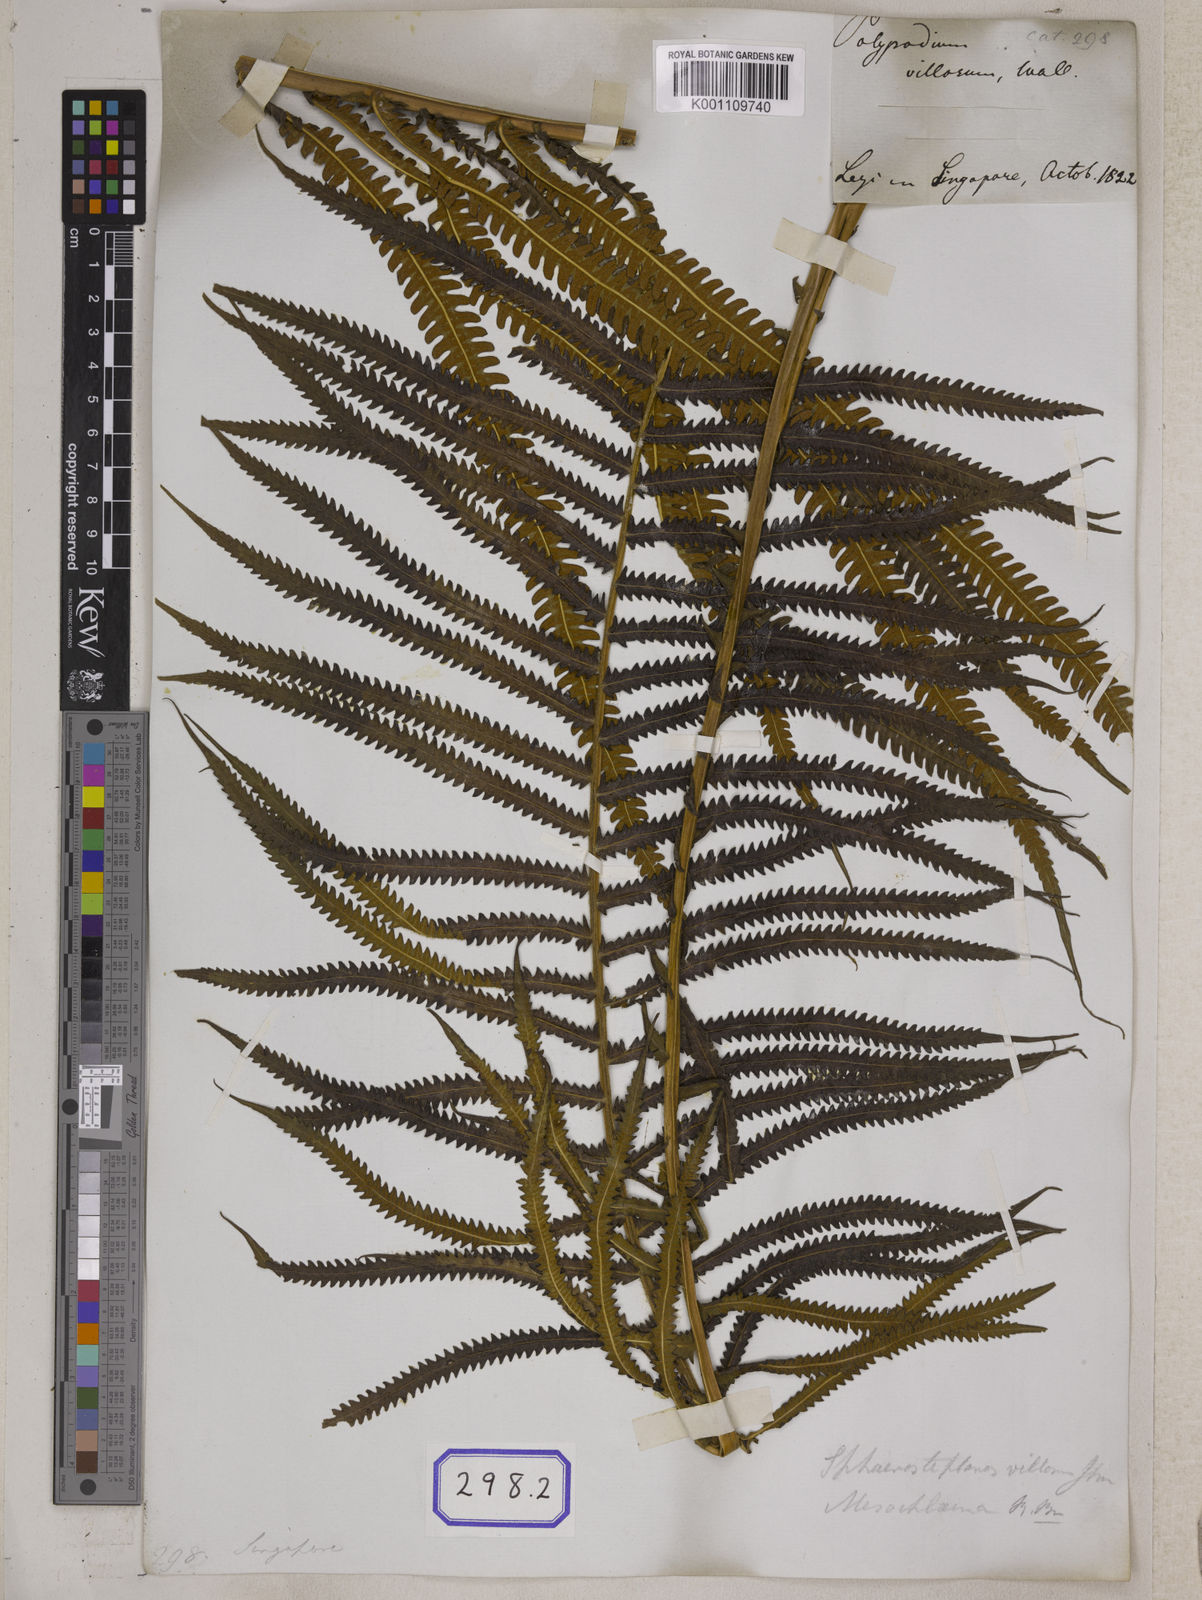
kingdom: Plantae
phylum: Tracheophyta
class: Polypodiopsida
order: Polypodiales
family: Thelypteridaceae
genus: Strophocaulon
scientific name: Strophocaulon unitum
